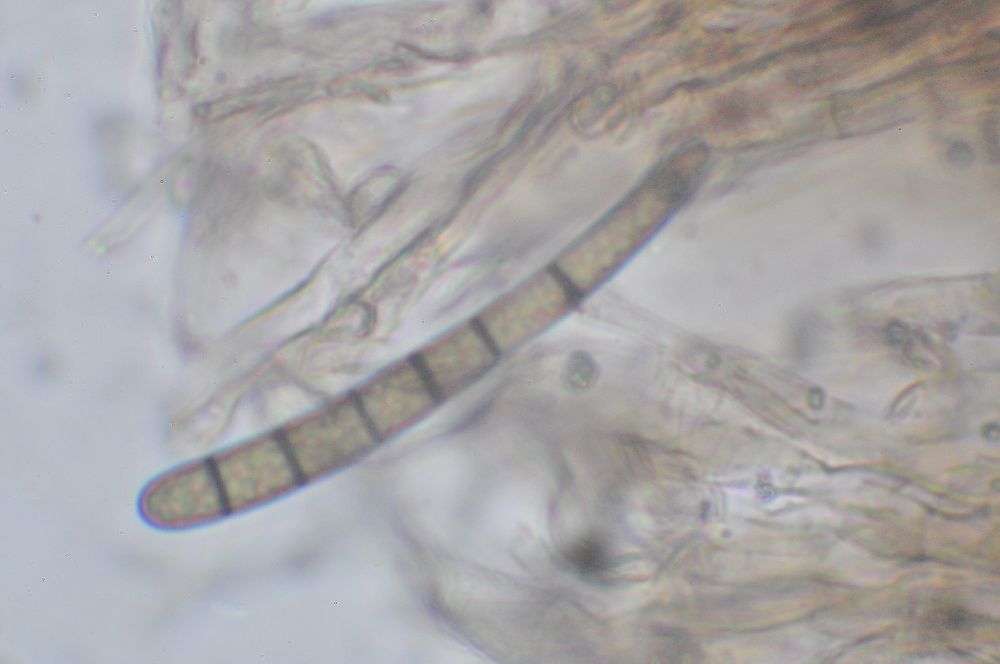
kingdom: Fungi
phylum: Ascomycota
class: Geoglossomycetes
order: Geoglossales
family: Geoglossaceae
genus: Geoglossum
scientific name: Geoglossum umbratile
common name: slank jordtunge
